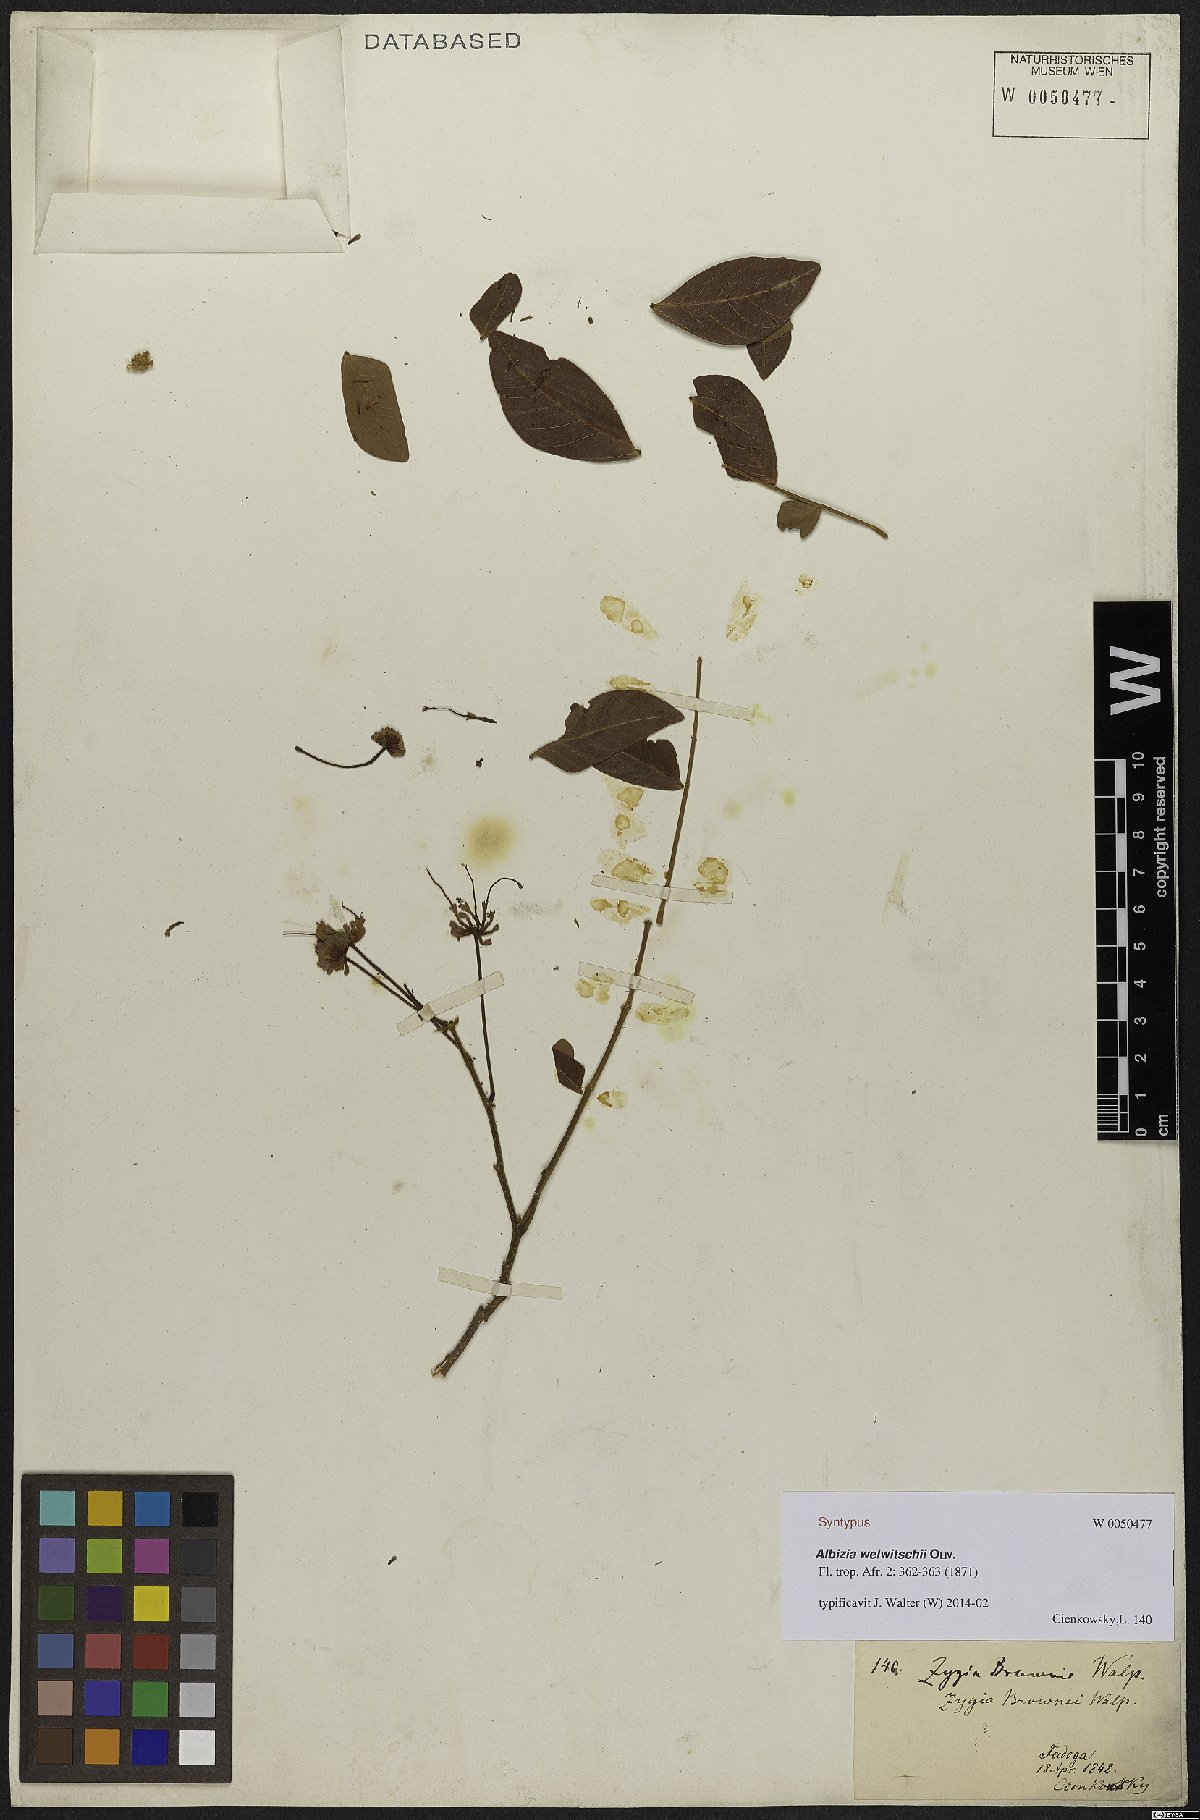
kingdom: Plantae
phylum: Tracheophyta
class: Magnoliopsida
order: Fabales
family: Fabaceae
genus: Albizia
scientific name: Albizia welwitschii
